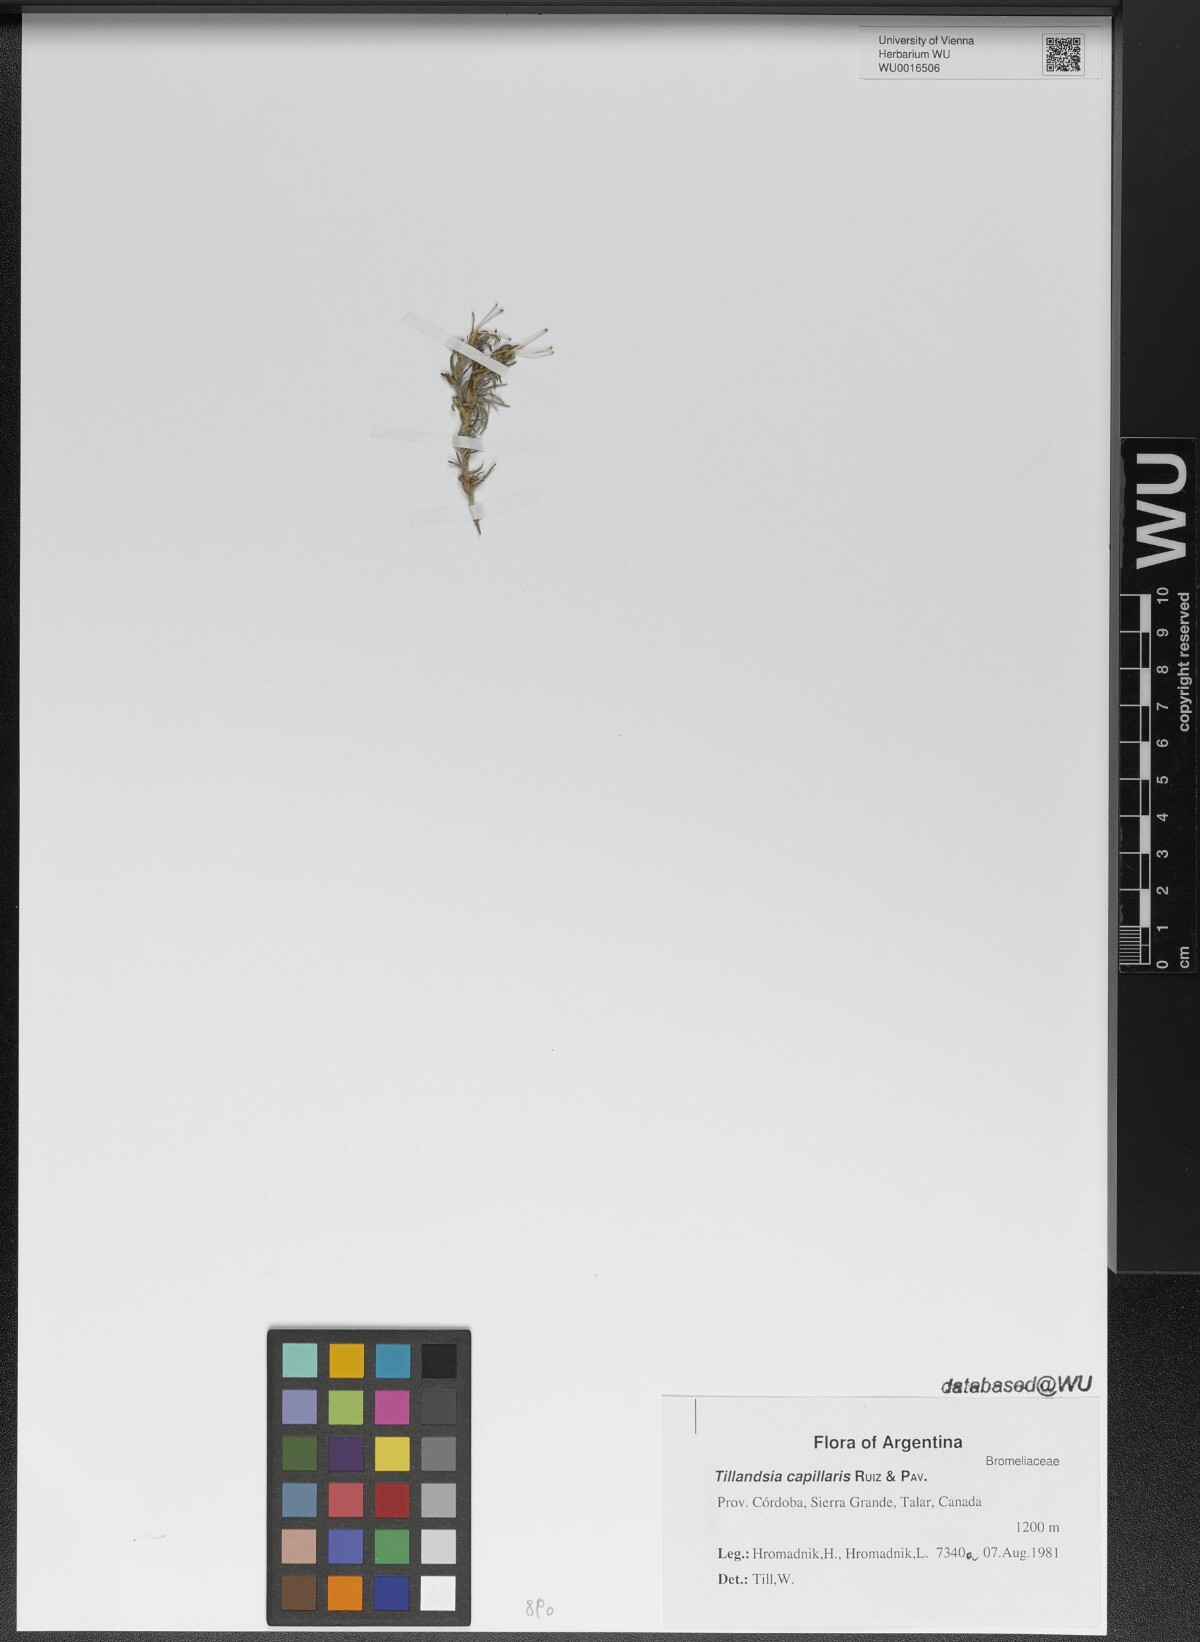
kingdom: Plantae
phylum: Tracheophyta
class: Liliopsida
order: Poales
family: Bromeliaceae
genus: Tillandsia
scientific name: Tillandsia capillaris
